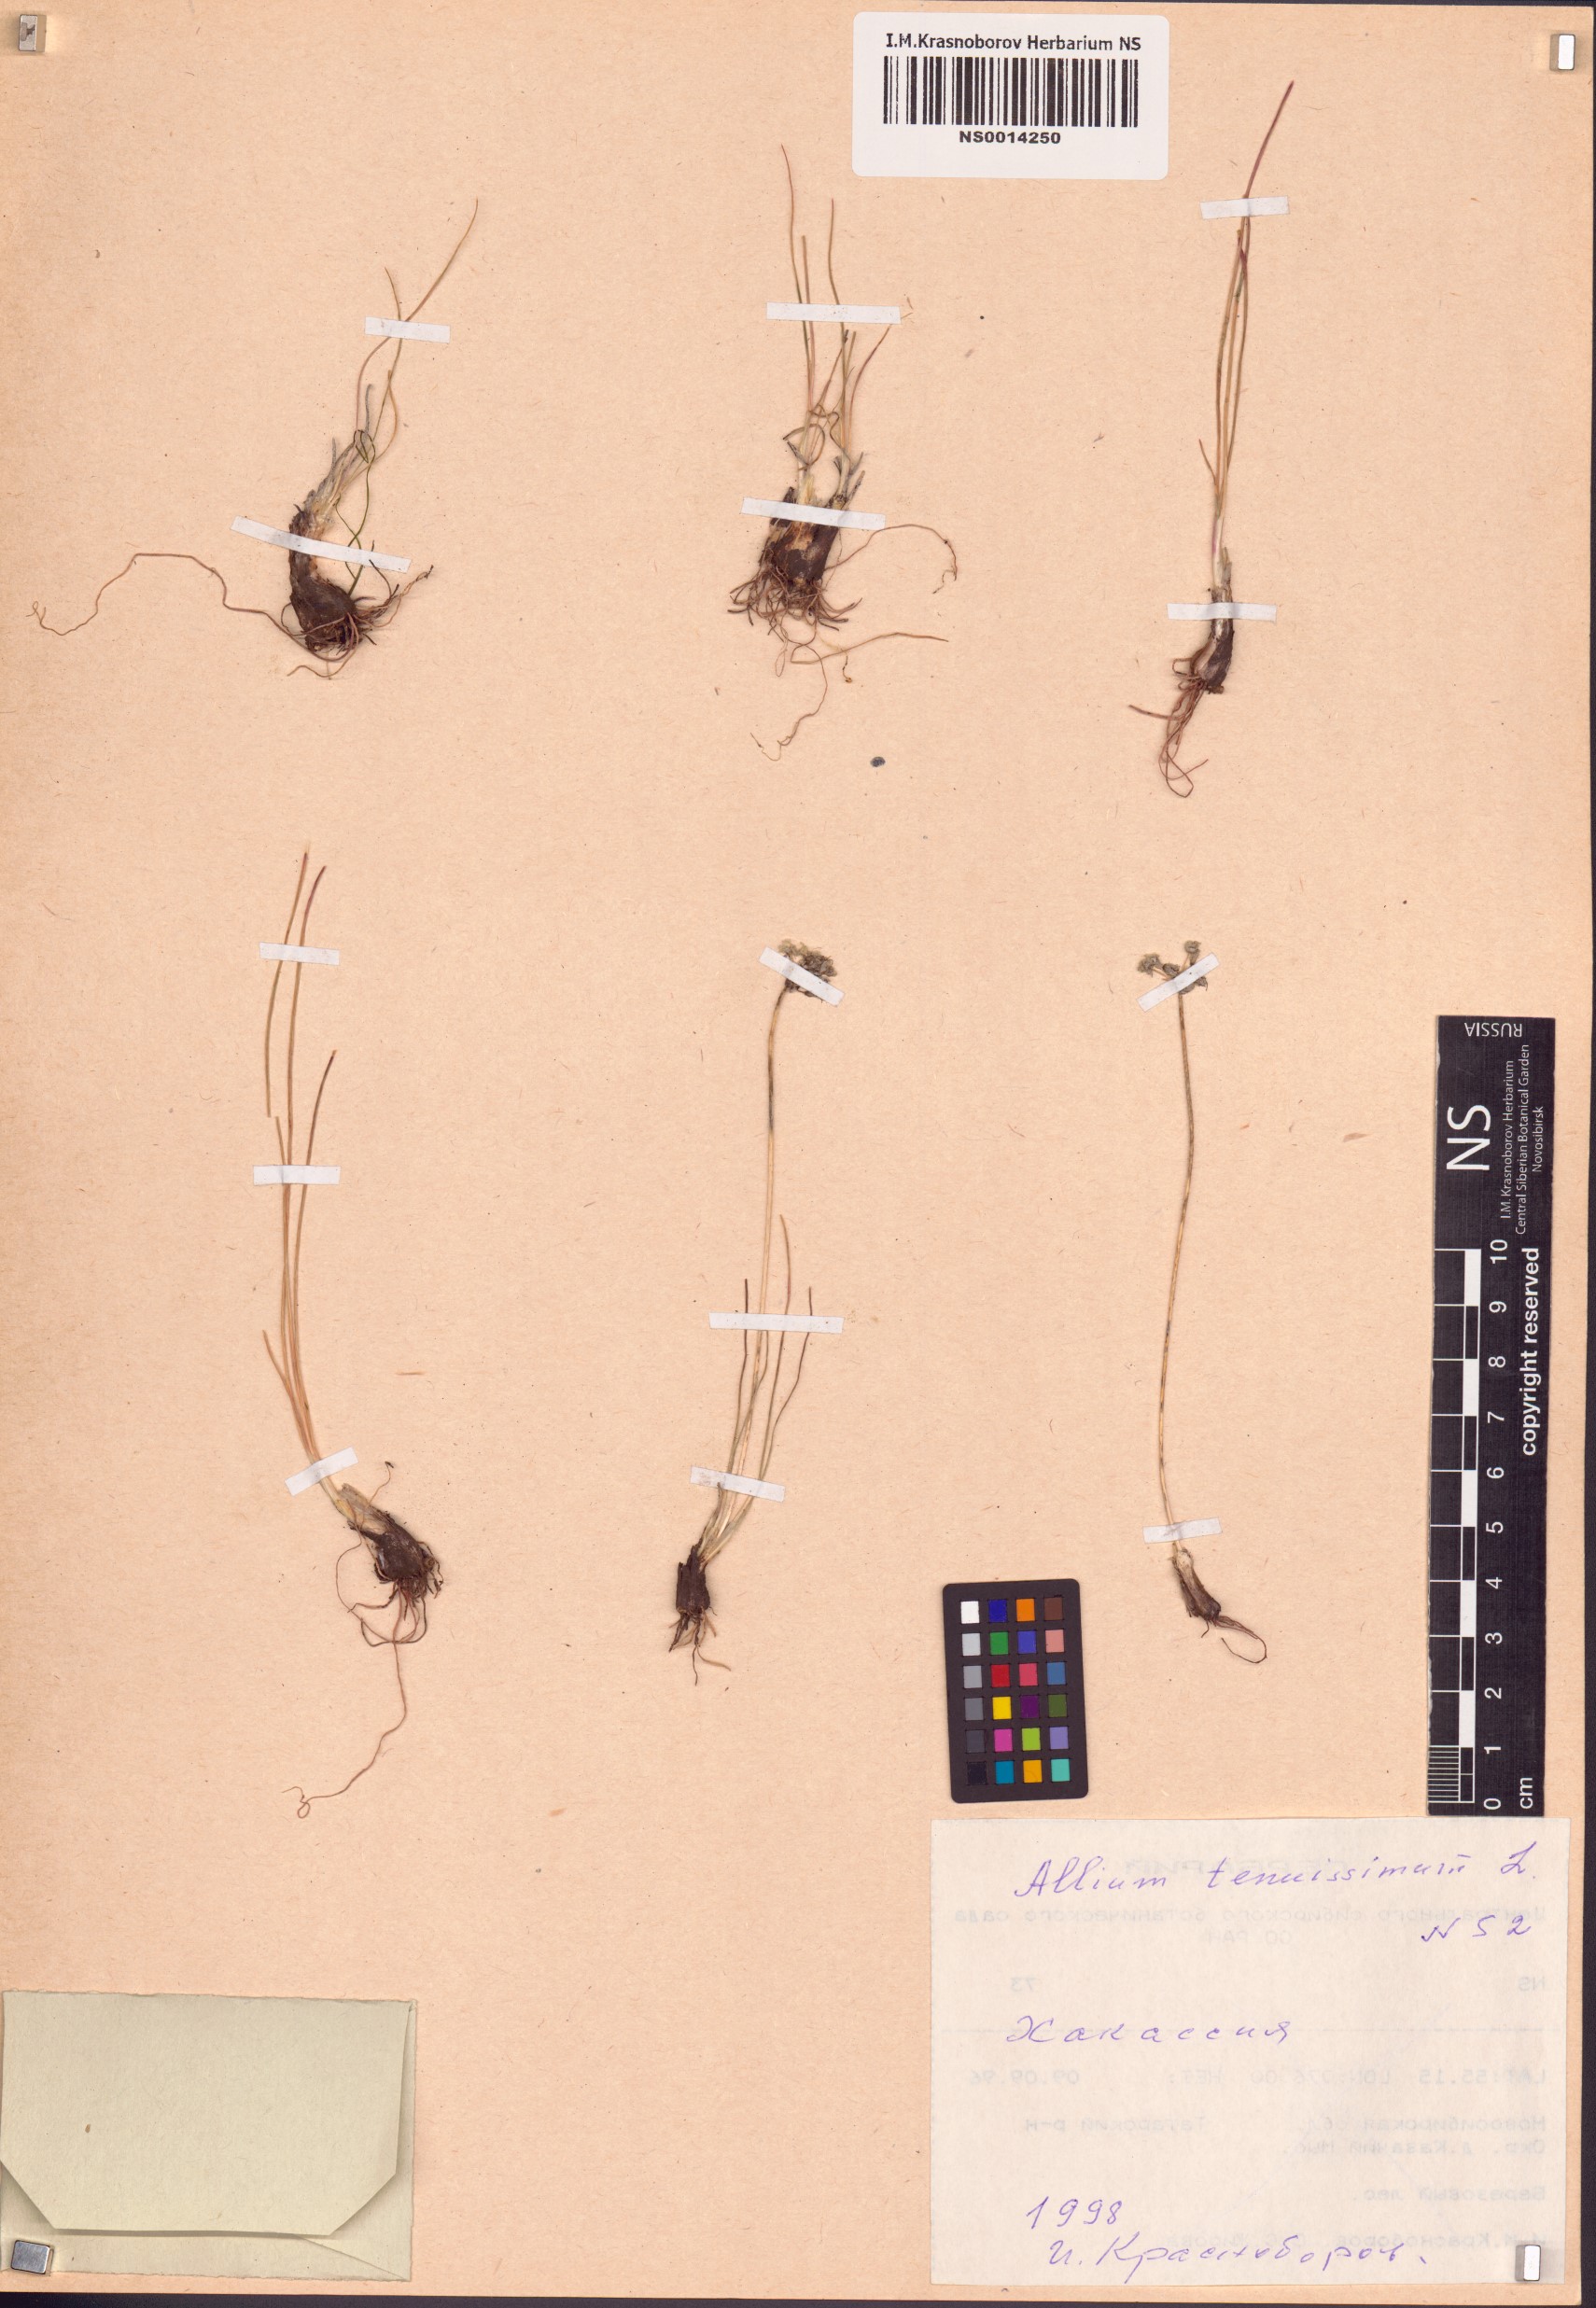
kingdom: Plantae
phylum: Tracheophyta
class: Liliopsida
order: Asparagales
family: Amaryllidaceae
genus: Allium
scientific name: Allium tenuissimum
